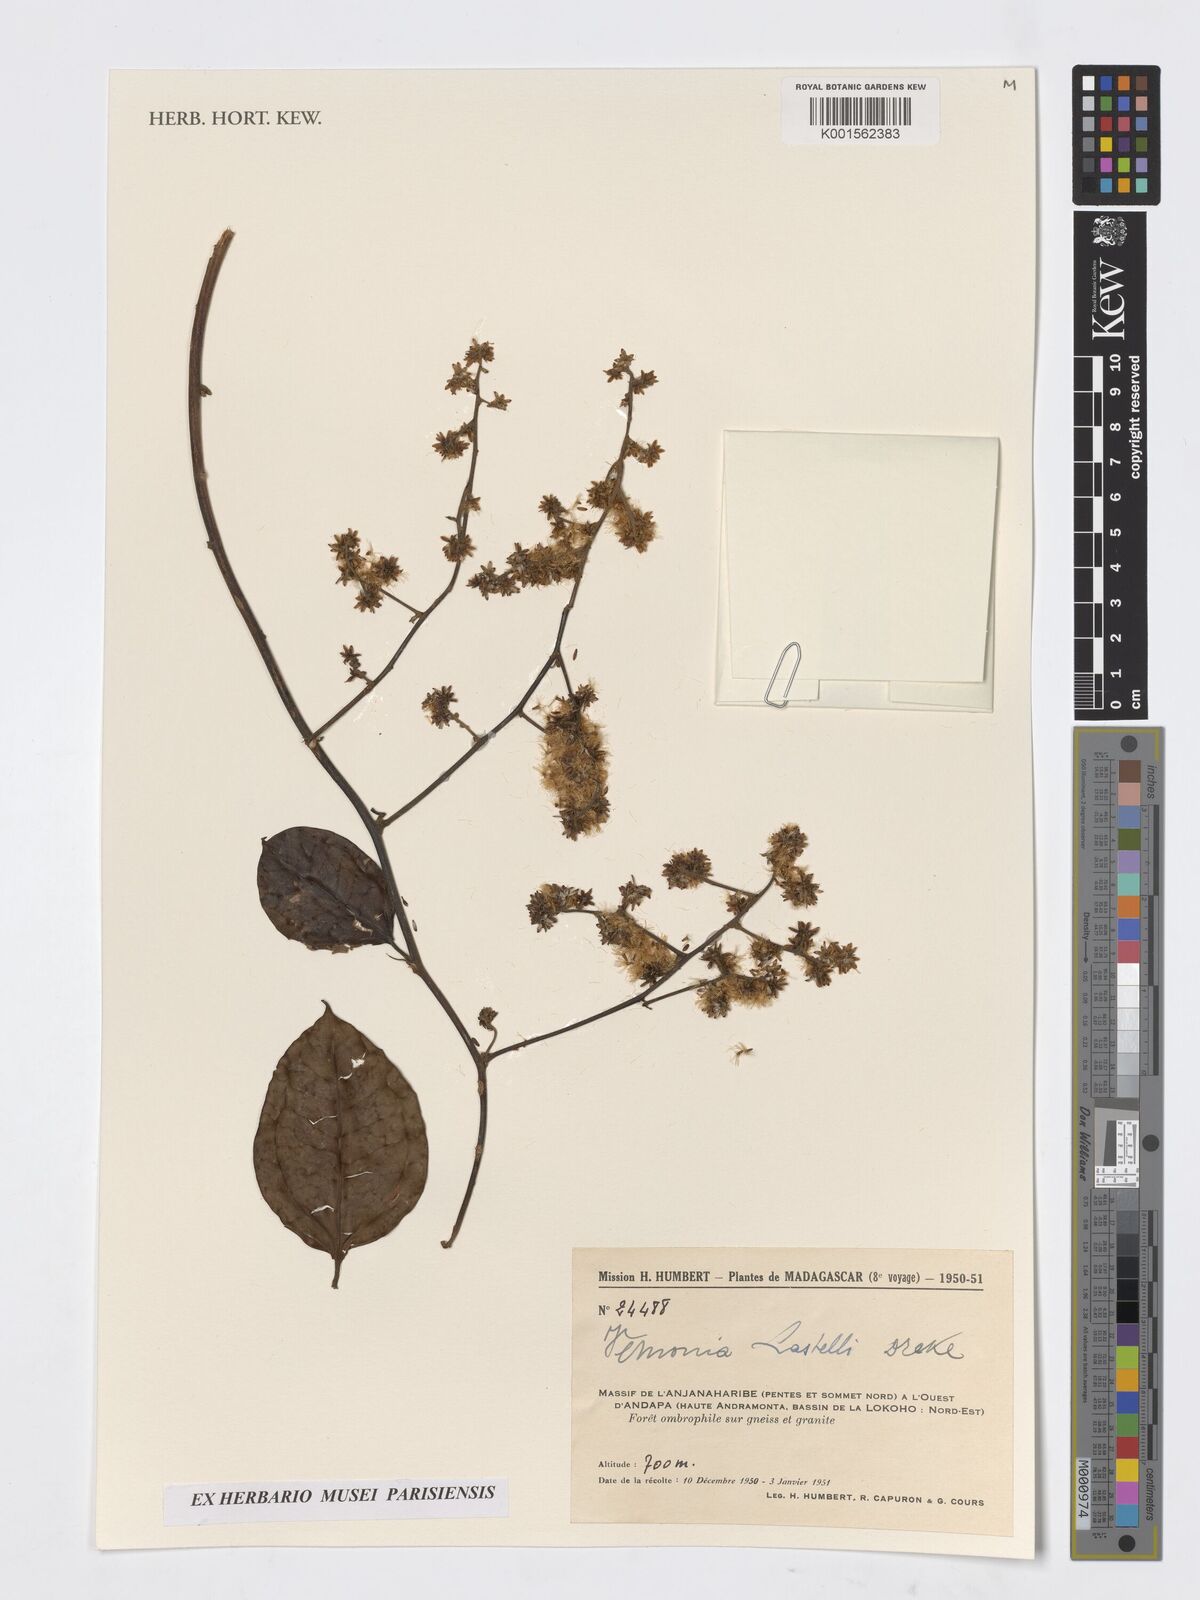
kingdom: Plantae
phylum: Tracheophyta
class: Magnoliopsida
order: Asterales
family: Asteraceae
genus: Vernonia
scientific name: Vernonia
